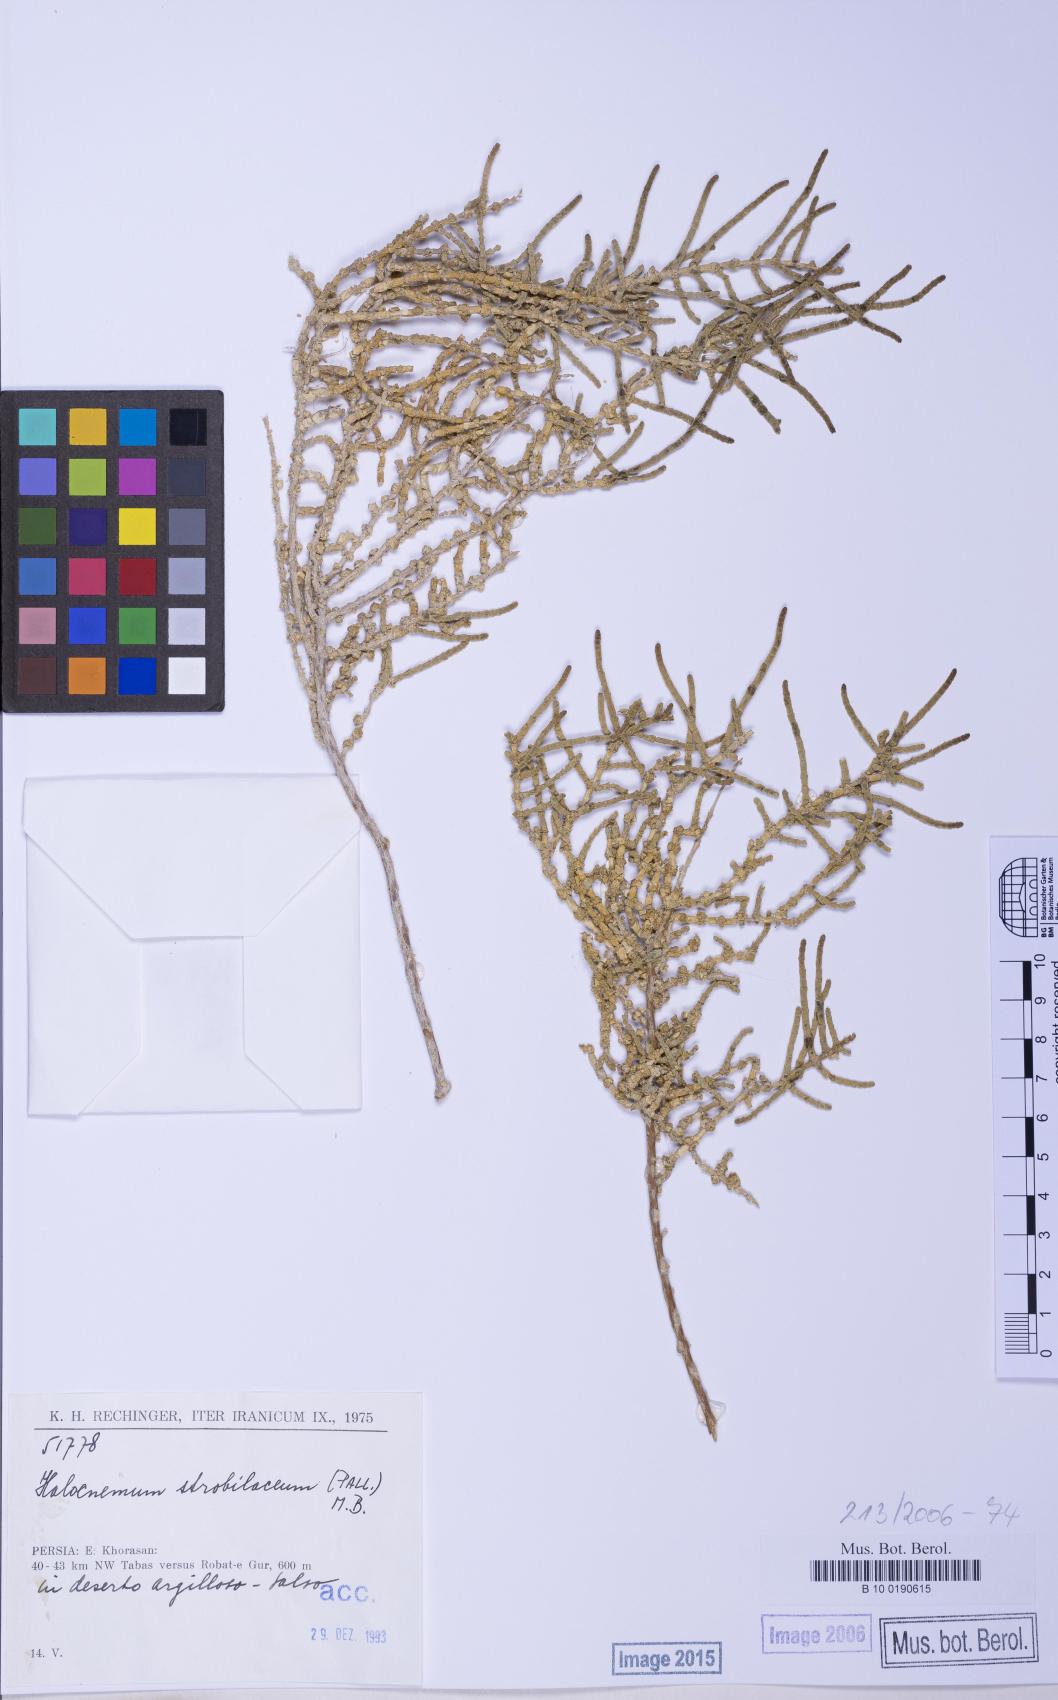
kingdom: Plantae
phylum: Tracheophyta
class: Magnoliopsida
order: Caryophyllales
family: Amaranthaceae
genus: Halocnemum
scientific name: Halocnemum strobilaceum
